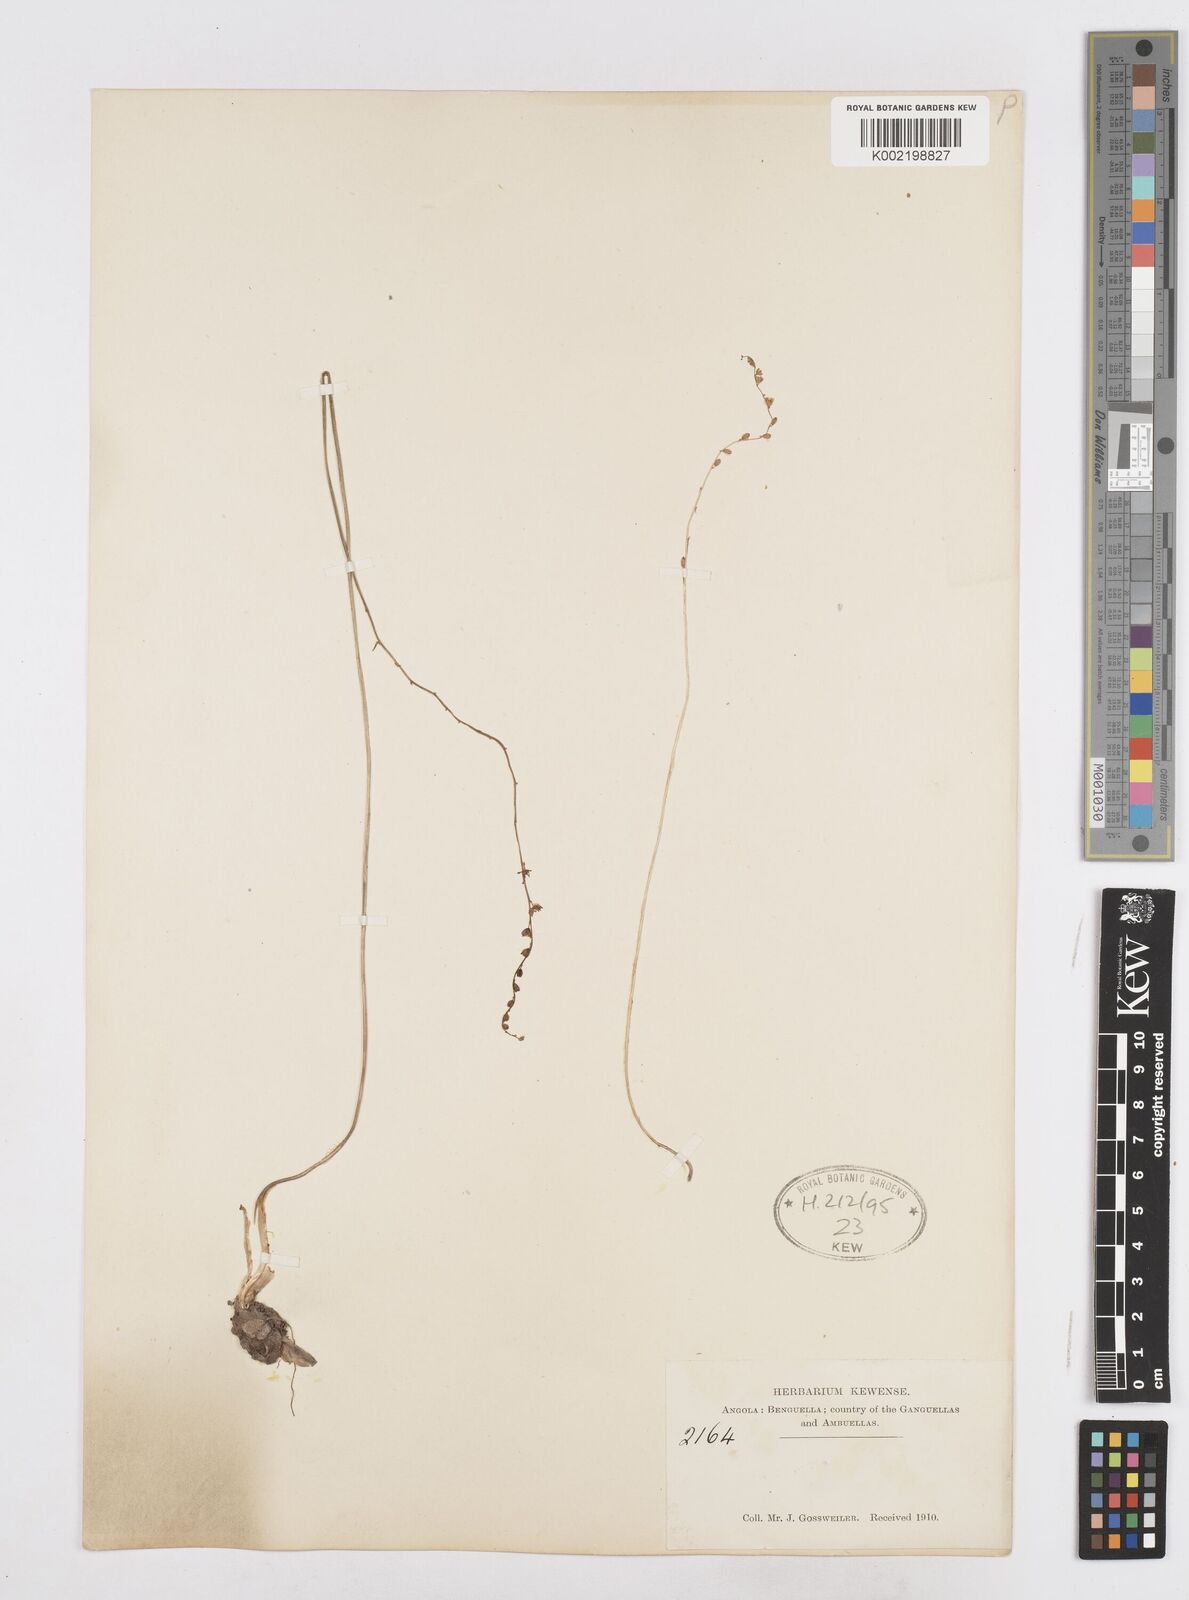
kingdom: Plantae
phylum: Tracheophyta
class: Liliopsida
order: Asparagales
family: Asparagaceae
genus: Drimia
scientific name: Drimia
